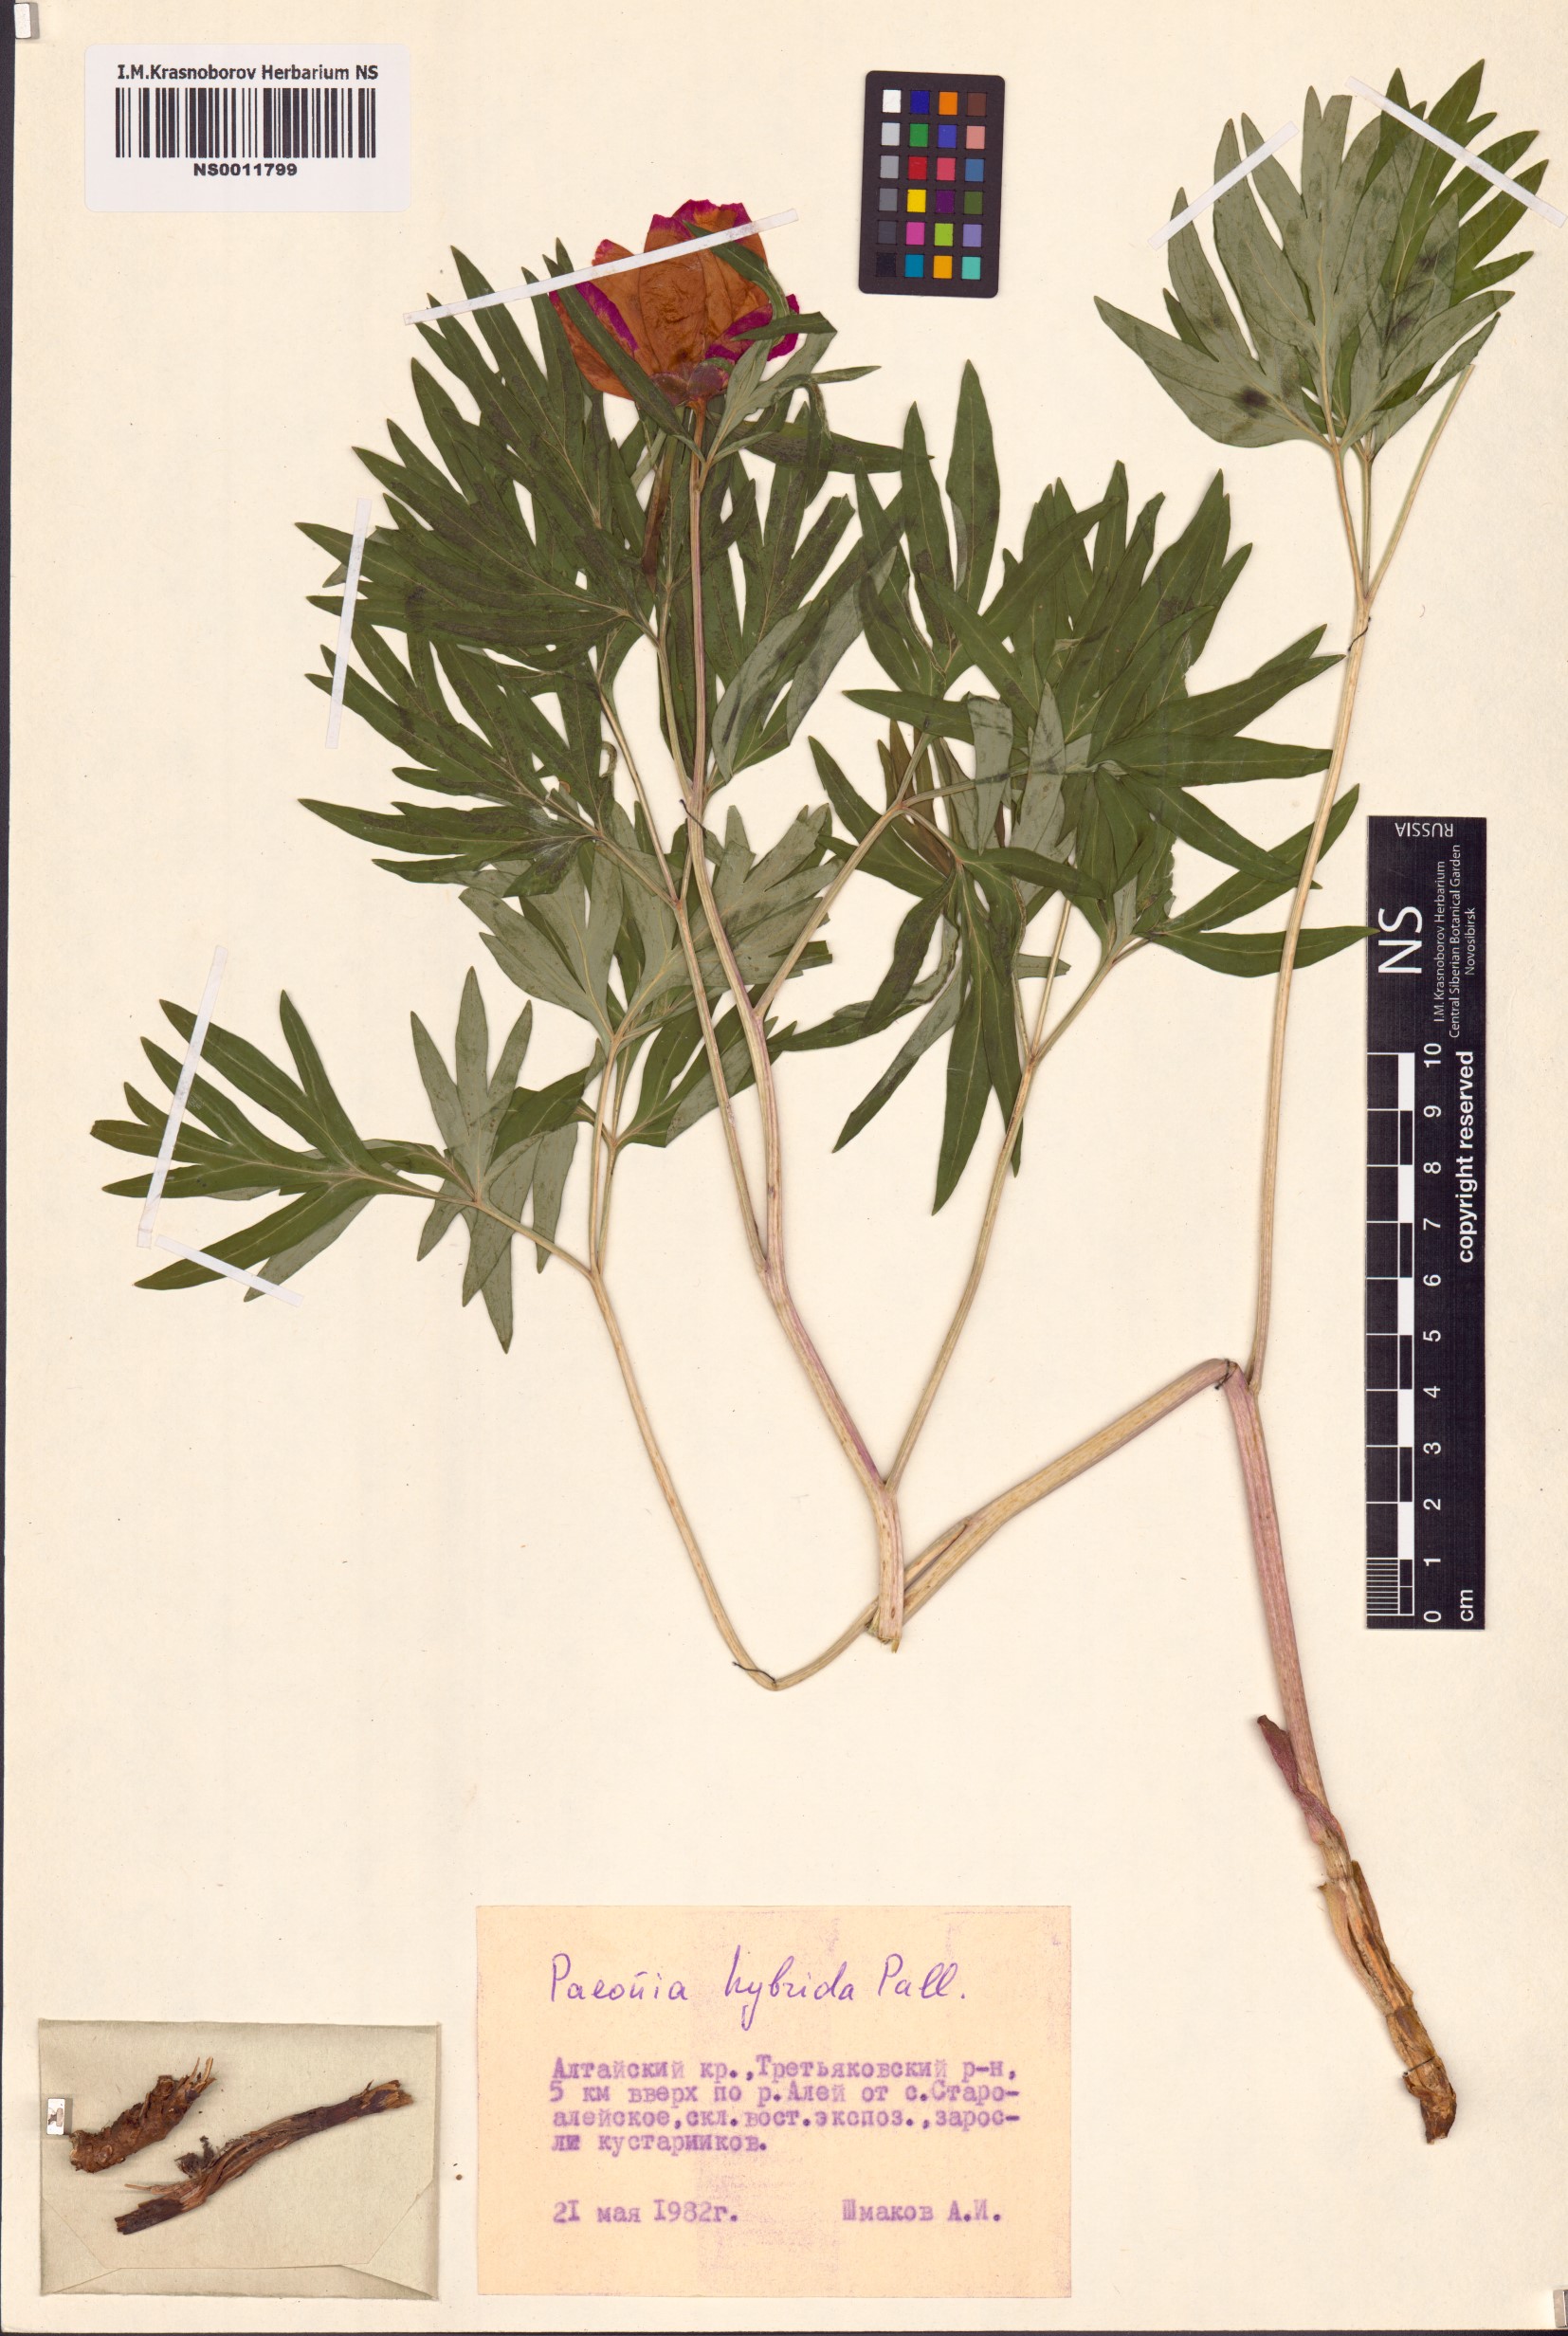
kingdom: Plantae
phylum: Tracheophyta
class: Magnoliopsida
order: Saxifragales
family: Paeoniaceae
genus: Paeonia
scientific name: Paeonia
